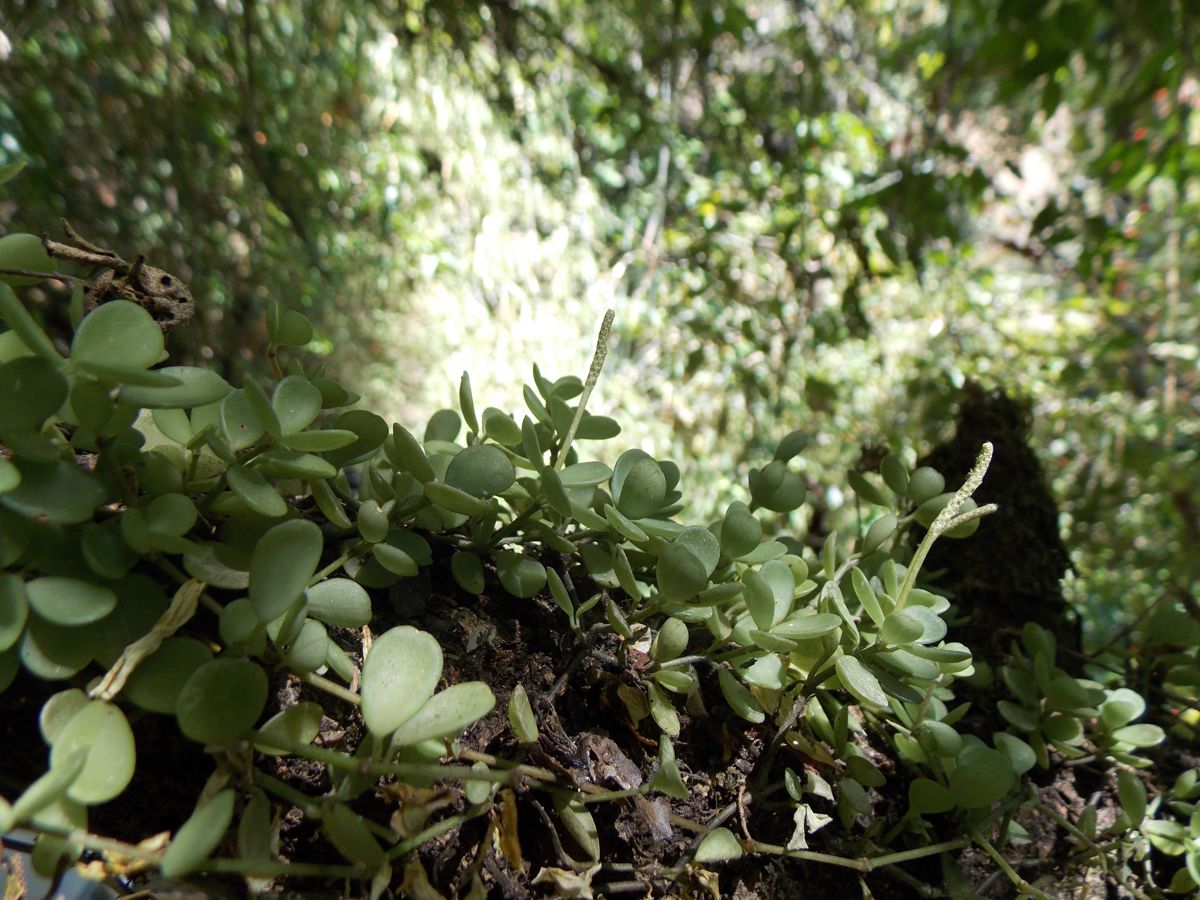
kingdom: Plantae
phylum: Tracheophyta
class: Magnoliopsida
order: Piperales
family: Piperaceae
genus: Peperomia
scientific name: Peperomia tenerrima
